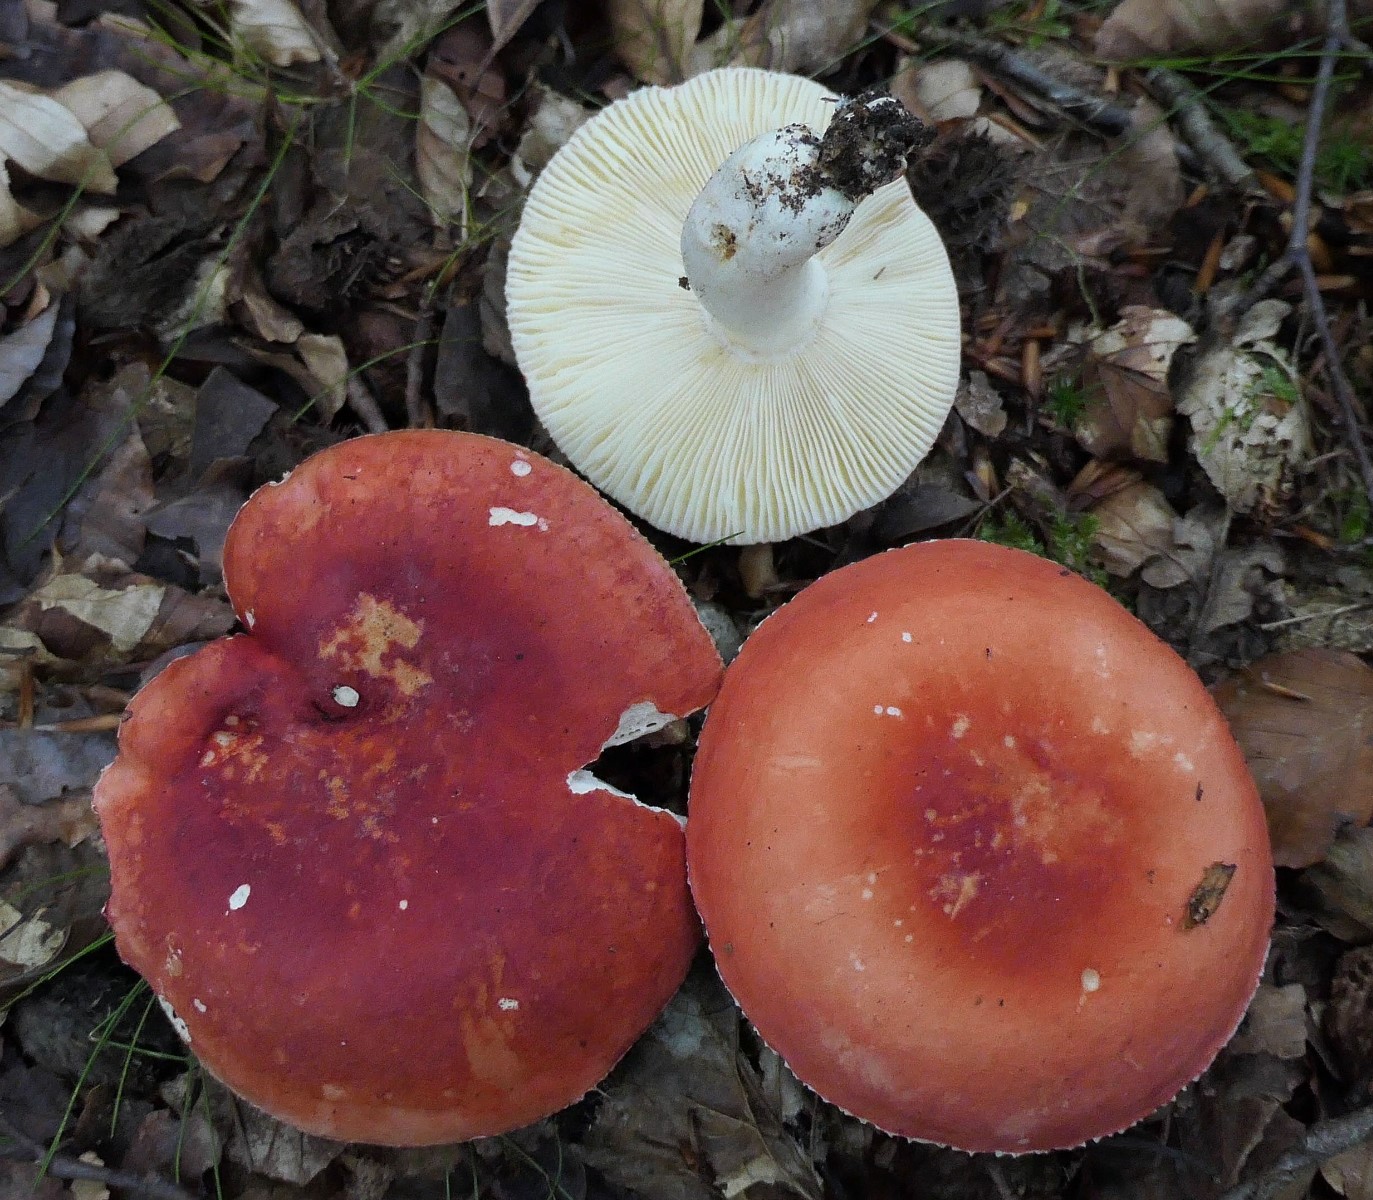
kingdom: Fungi
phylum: Basidiomycota
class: Agaricomycetes
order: Russulales
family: Russulaceae
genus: Russula
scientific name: Russula rosea
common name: fastkødet skørhat
